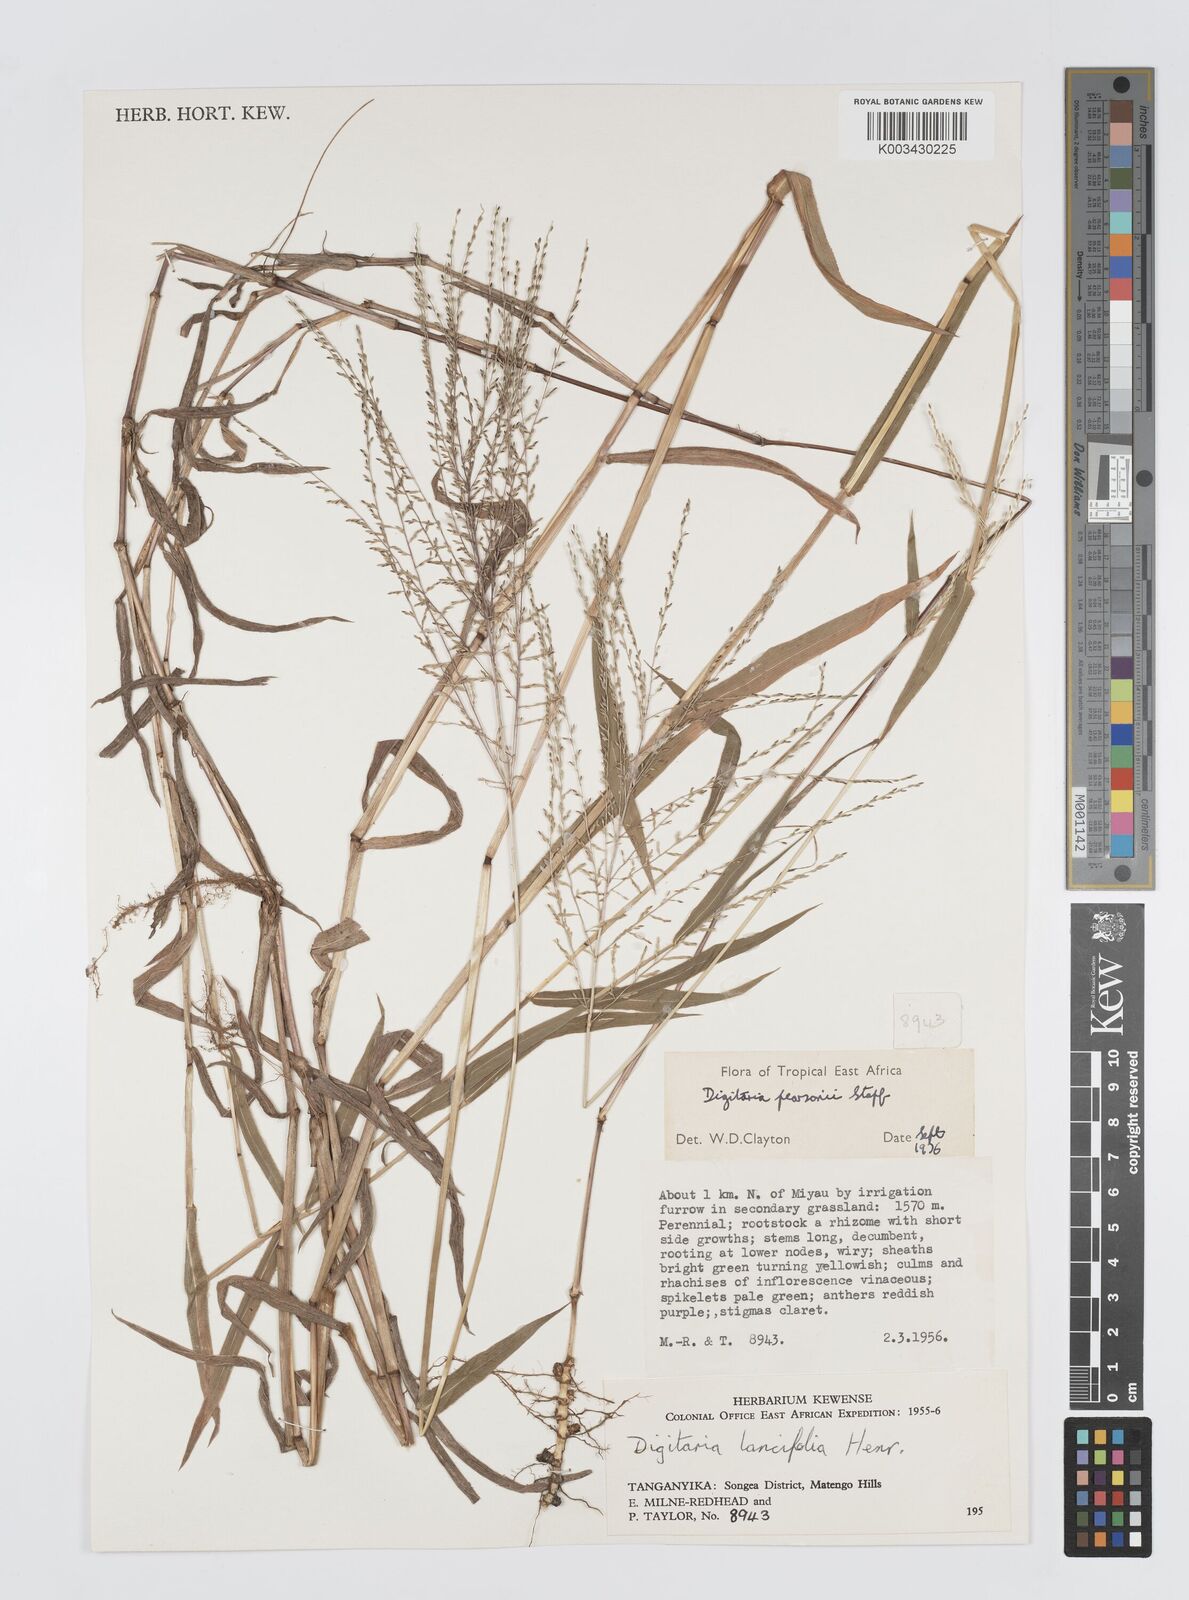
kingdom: Plantae
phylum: Tracheophyta
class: Liliopsida
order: Poales
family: Poaceae
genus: Digitaria
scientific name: Digitaria pearsonii
